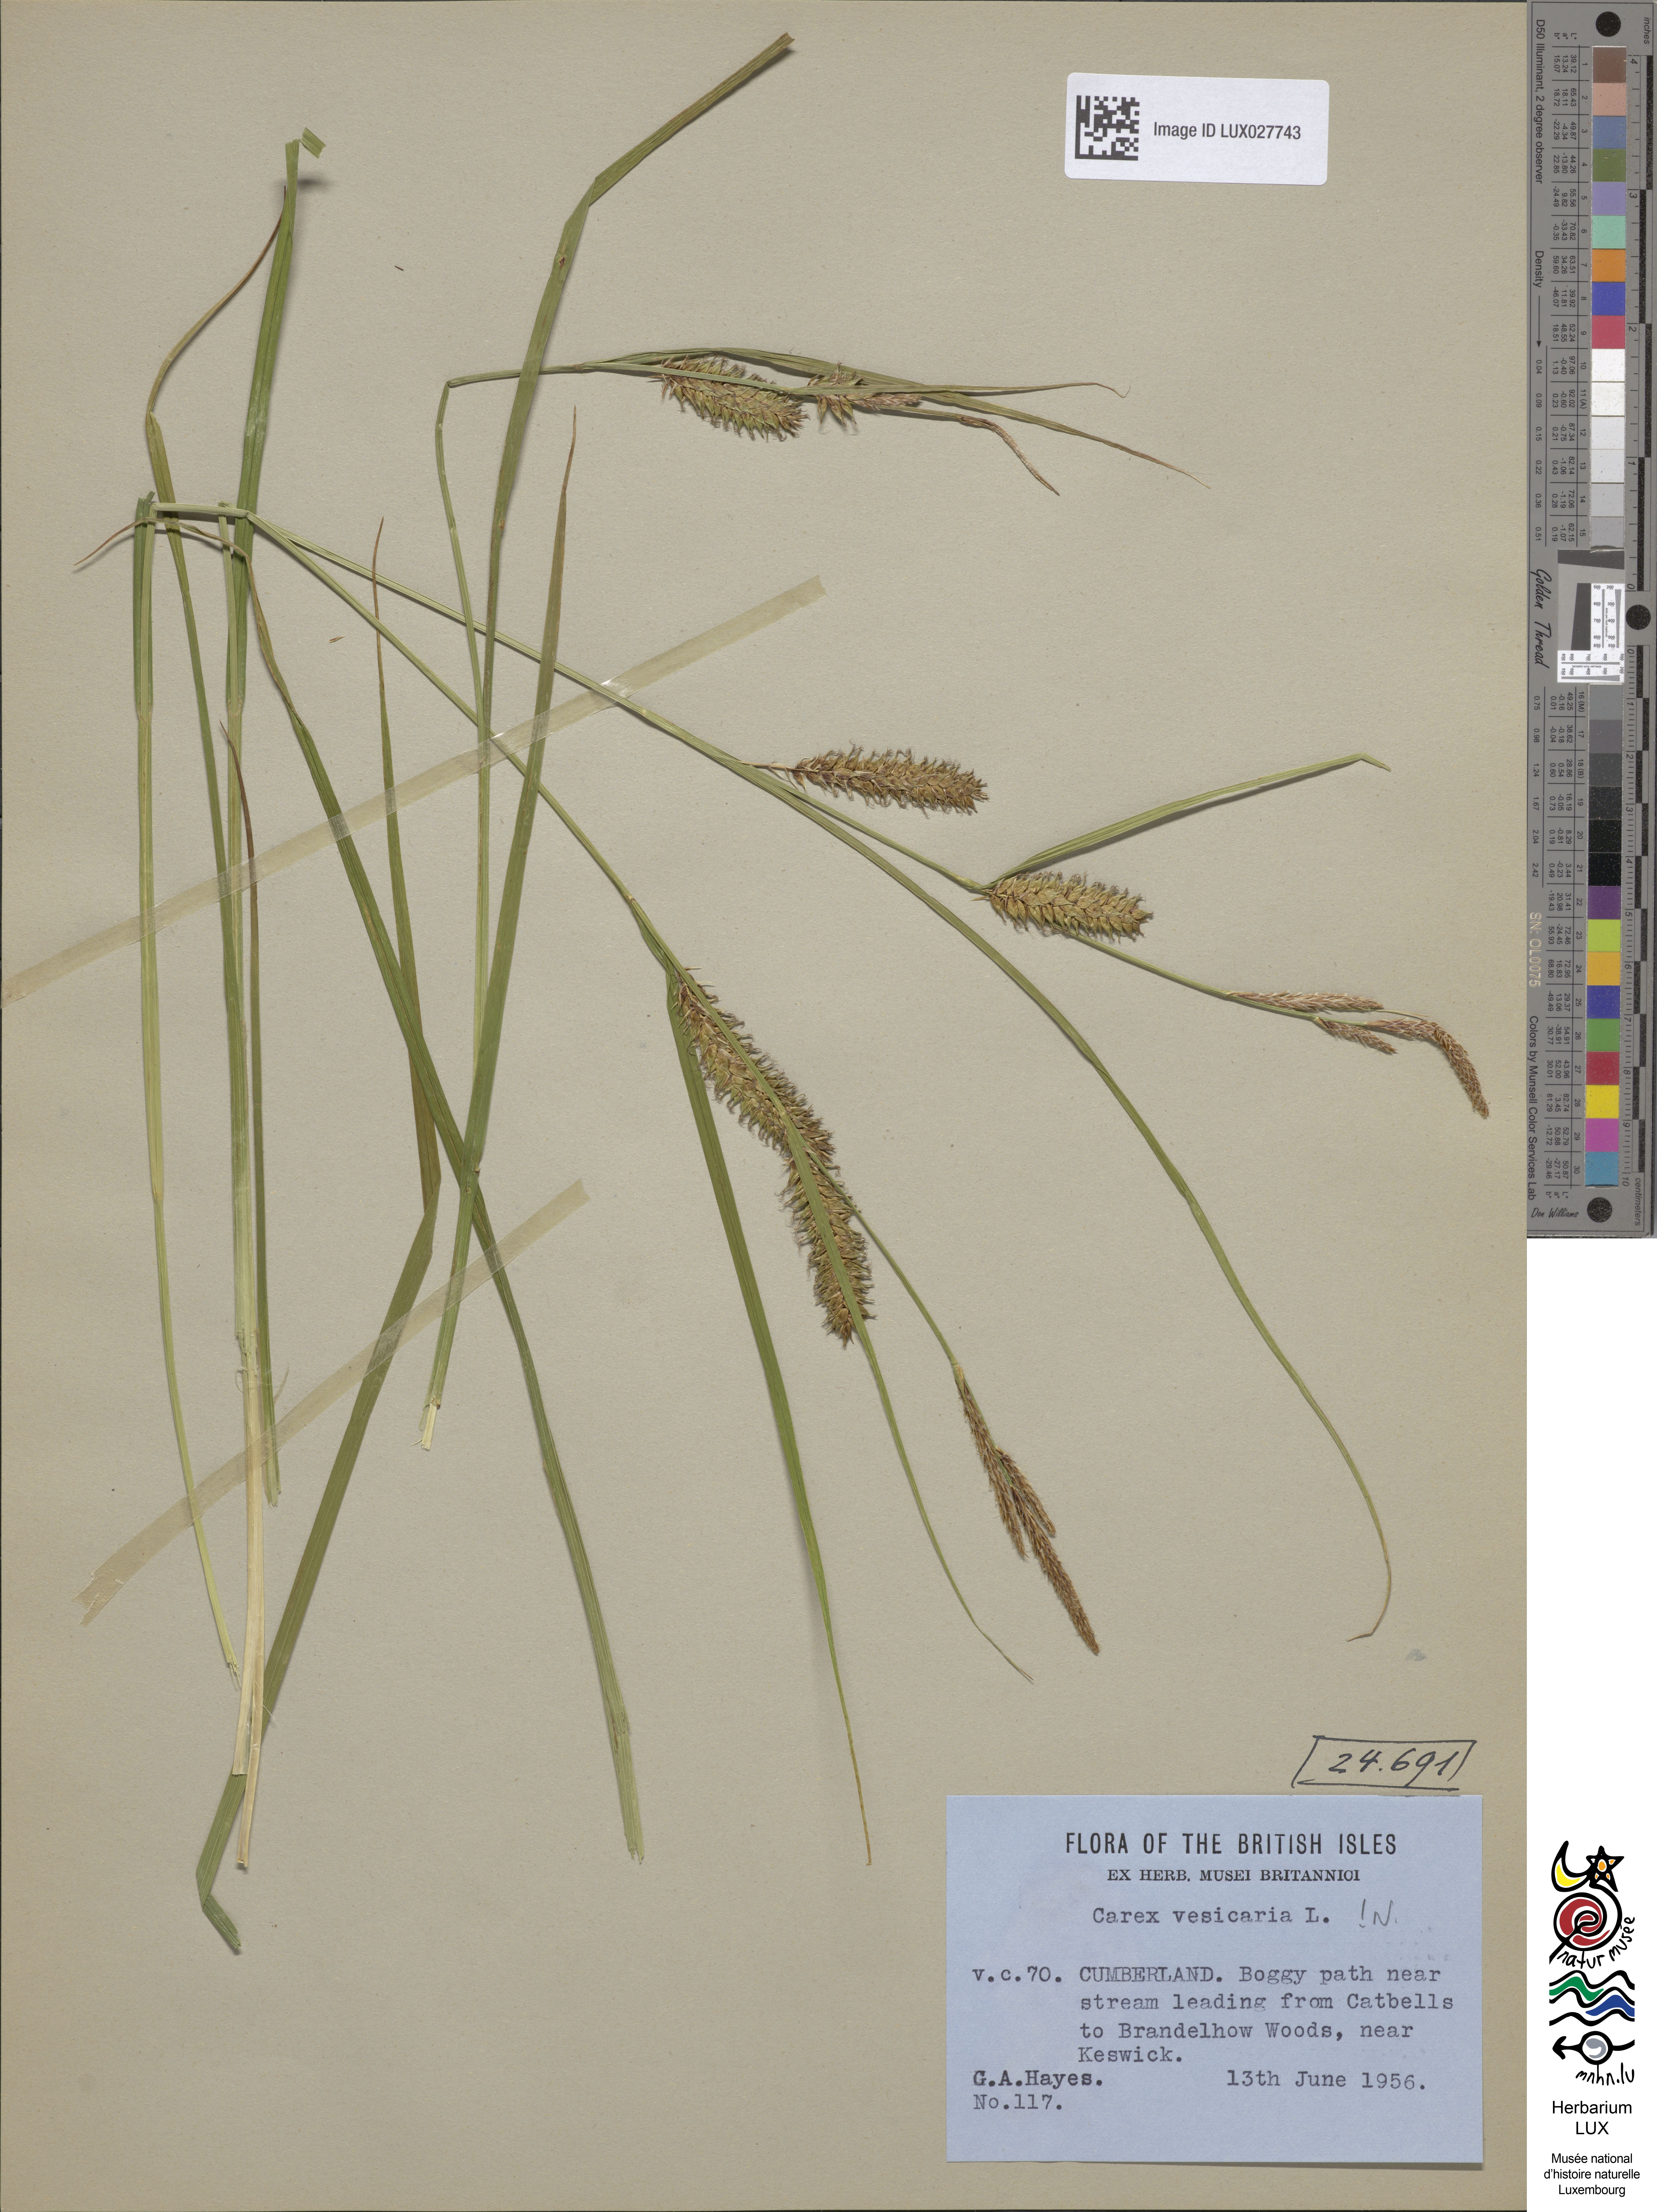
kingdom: Plantae
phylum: Tracheophyta
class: Liliopsida
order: Poales
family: Cyperaceae
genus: Carex
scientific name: Carex vesicaria
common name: Bladder-sedge
